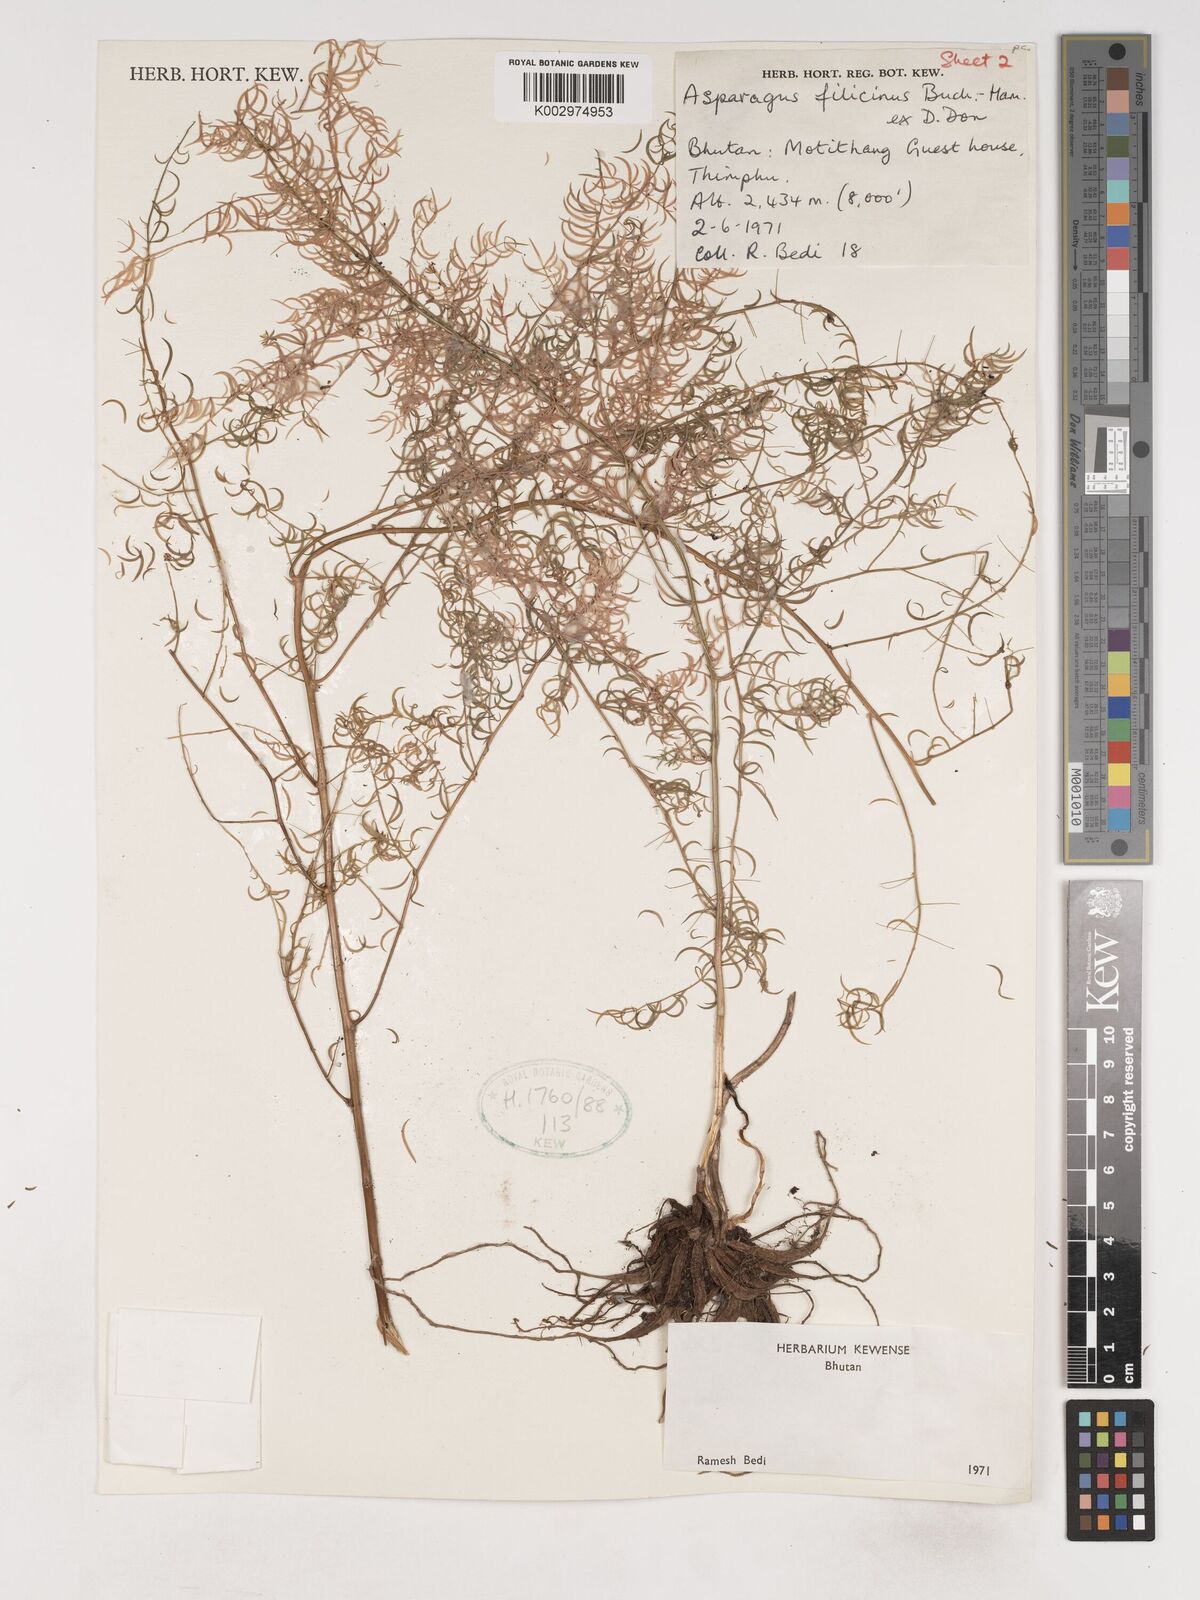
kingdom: Plantae
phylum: Tracheophyta
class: Liliopsida
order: Asparagales
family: Asparagaceae
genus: Asparagus
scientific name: Asparagus filicinus
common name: Fern asparagus
